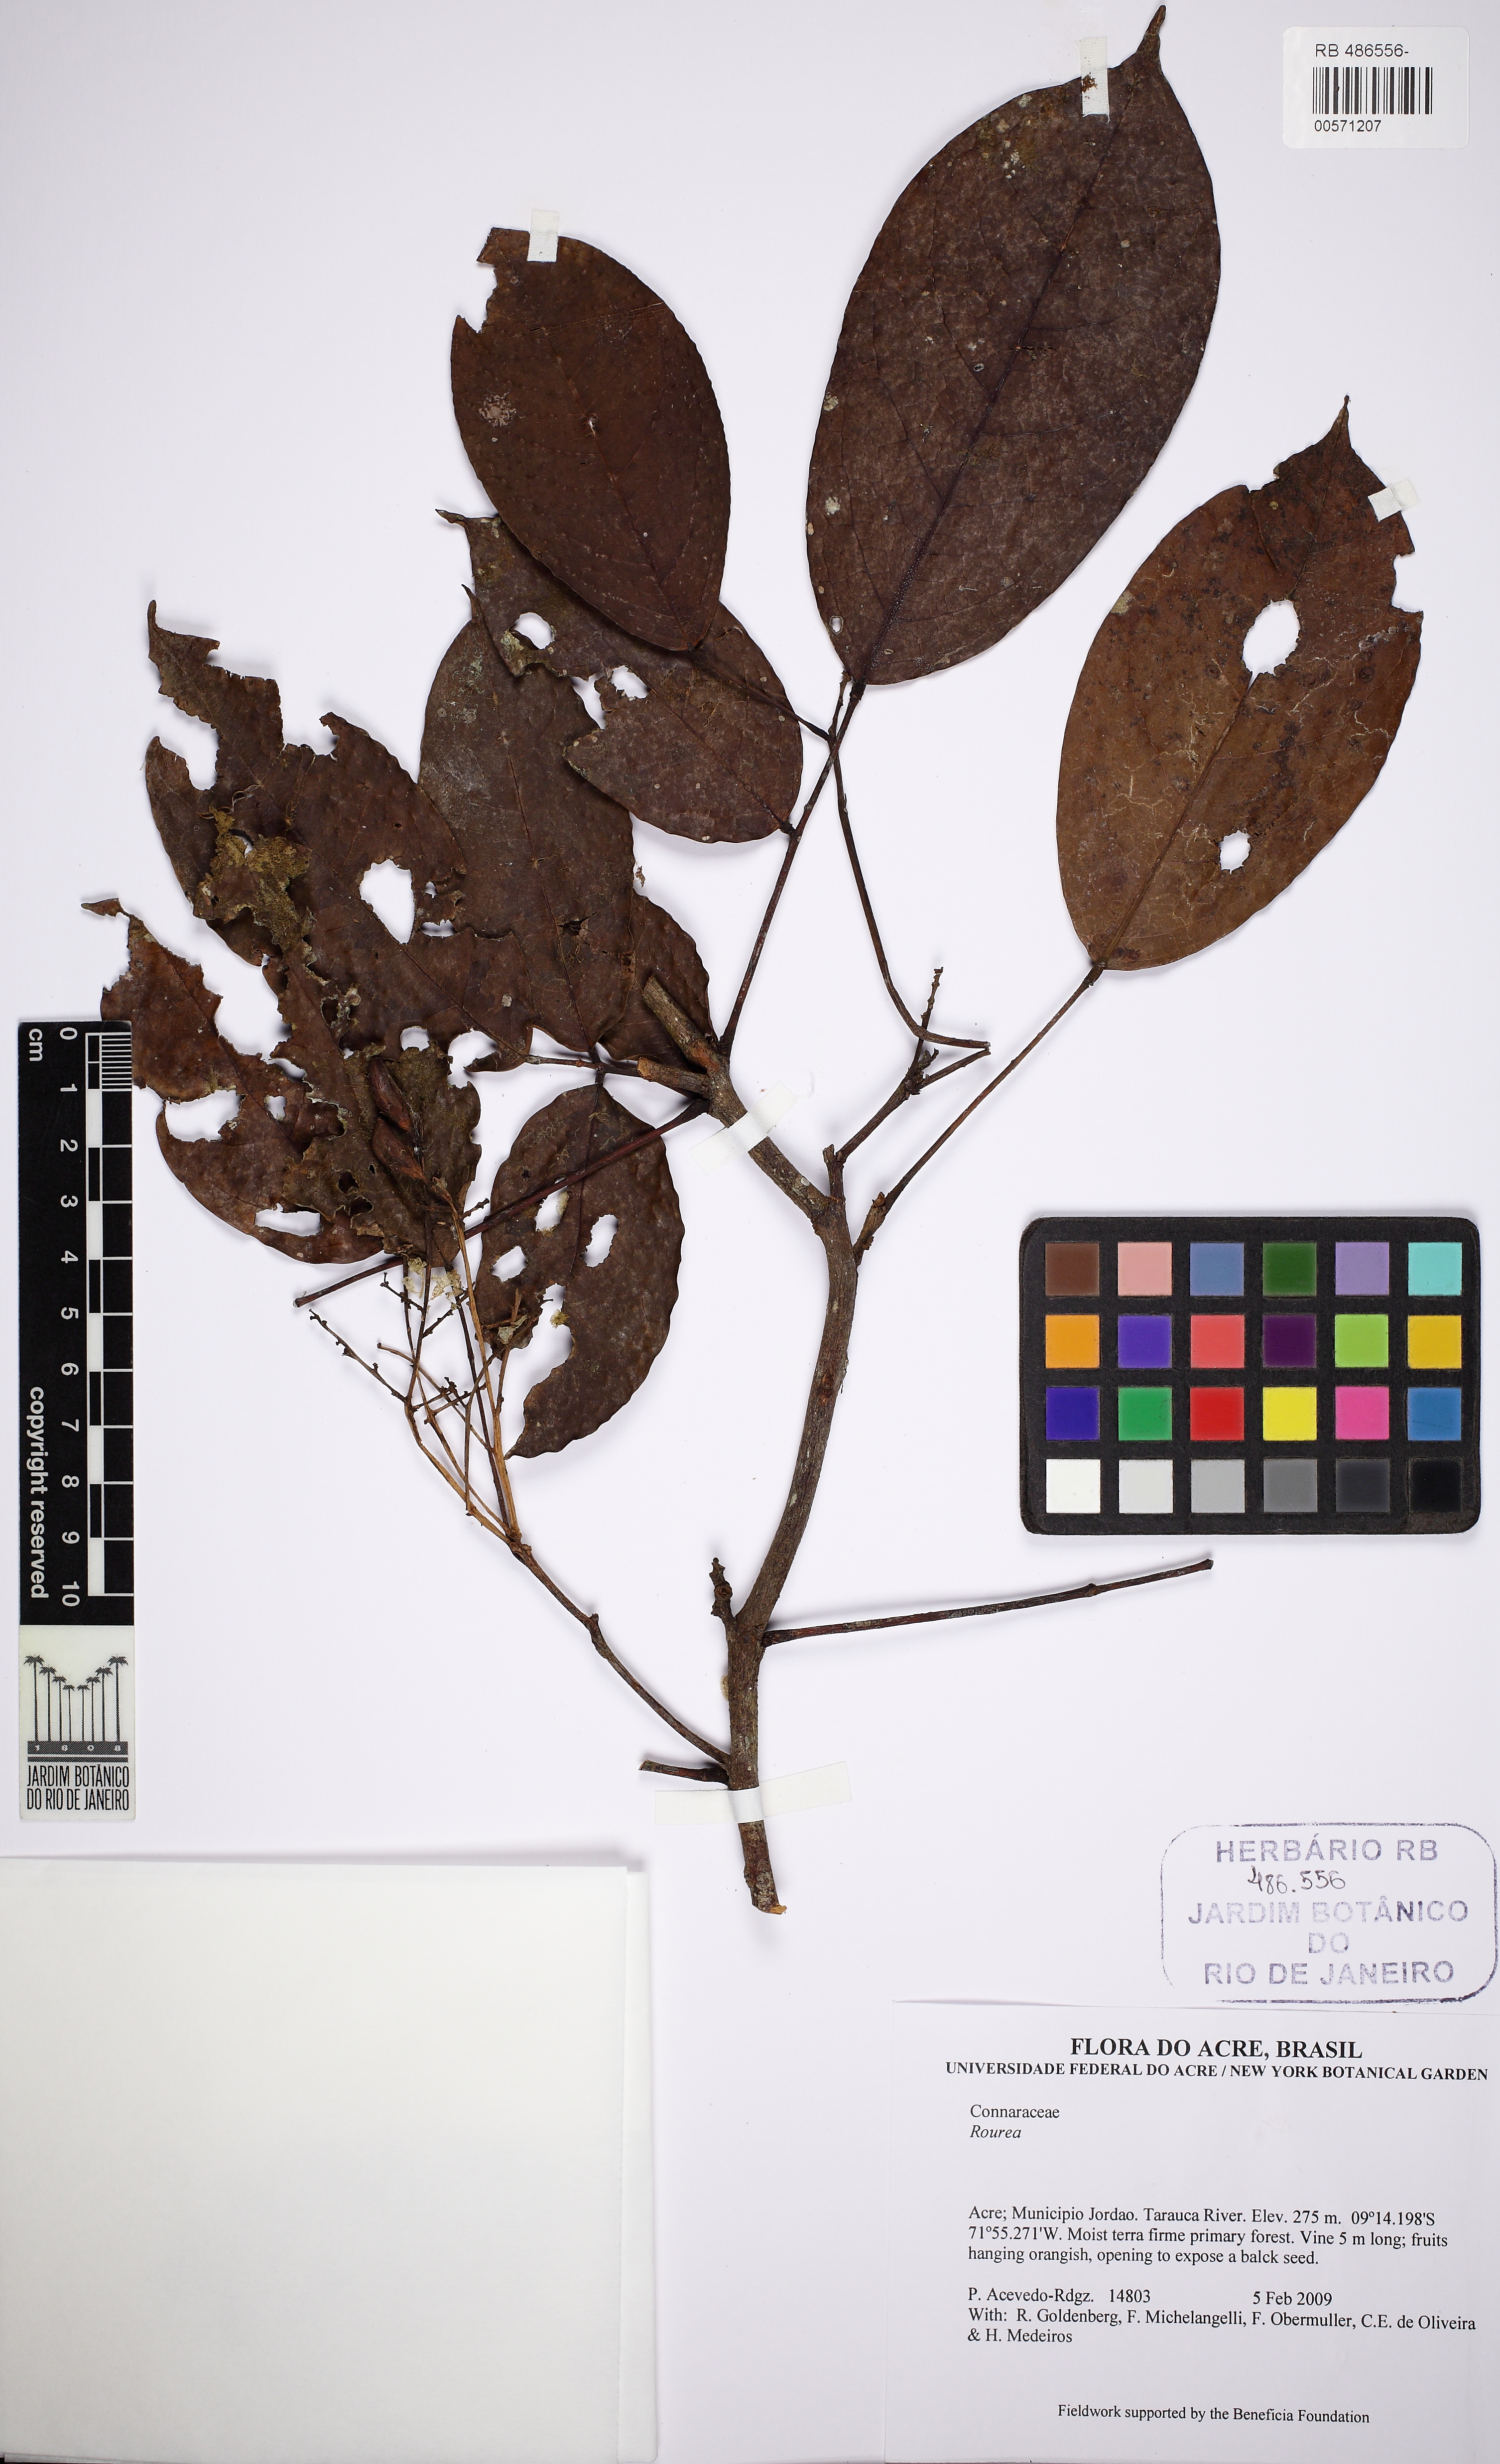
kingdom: Plantae
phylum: Tracheophyta
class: Magnoliopsida
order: Oxalidales
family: Connaraceae
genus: Rourea
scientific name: Rourea
